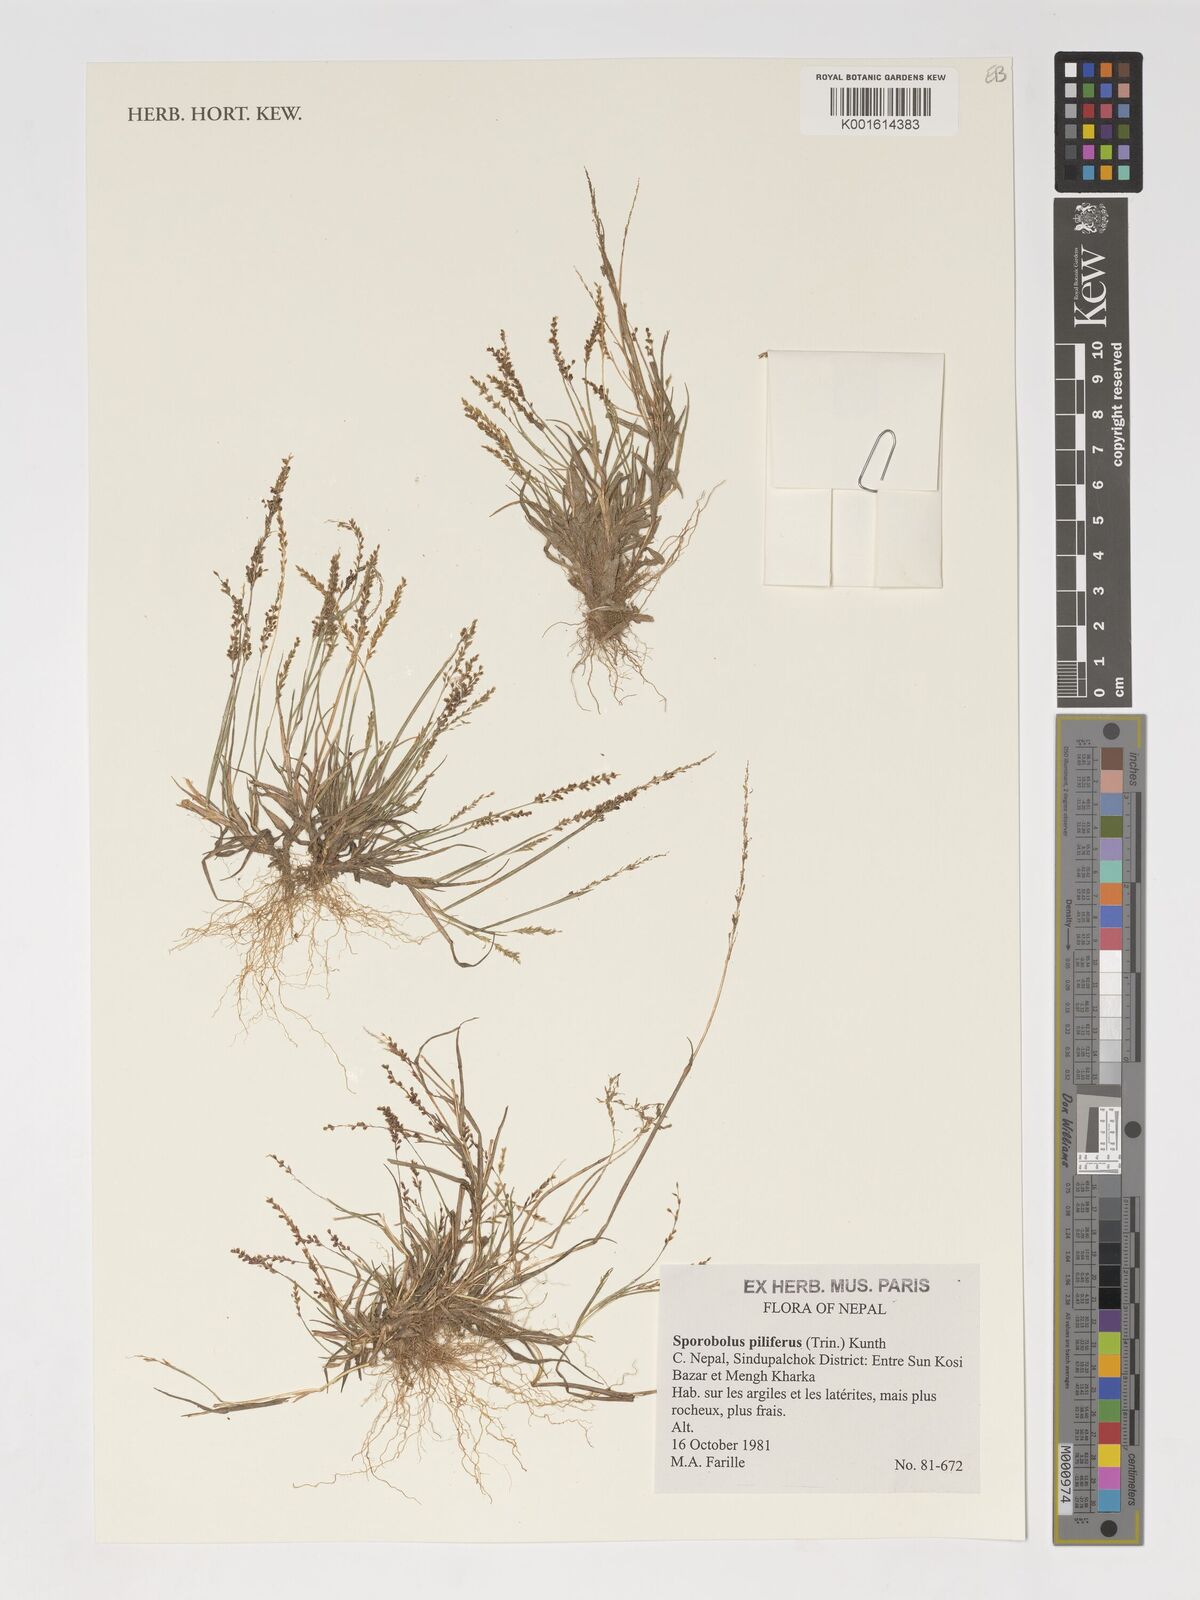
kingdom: Plantae
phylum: Tracheophyta
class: Liliopsida
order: Poales
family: Poaceae
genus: Sporobolus
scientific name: Sporobolus pilifer
